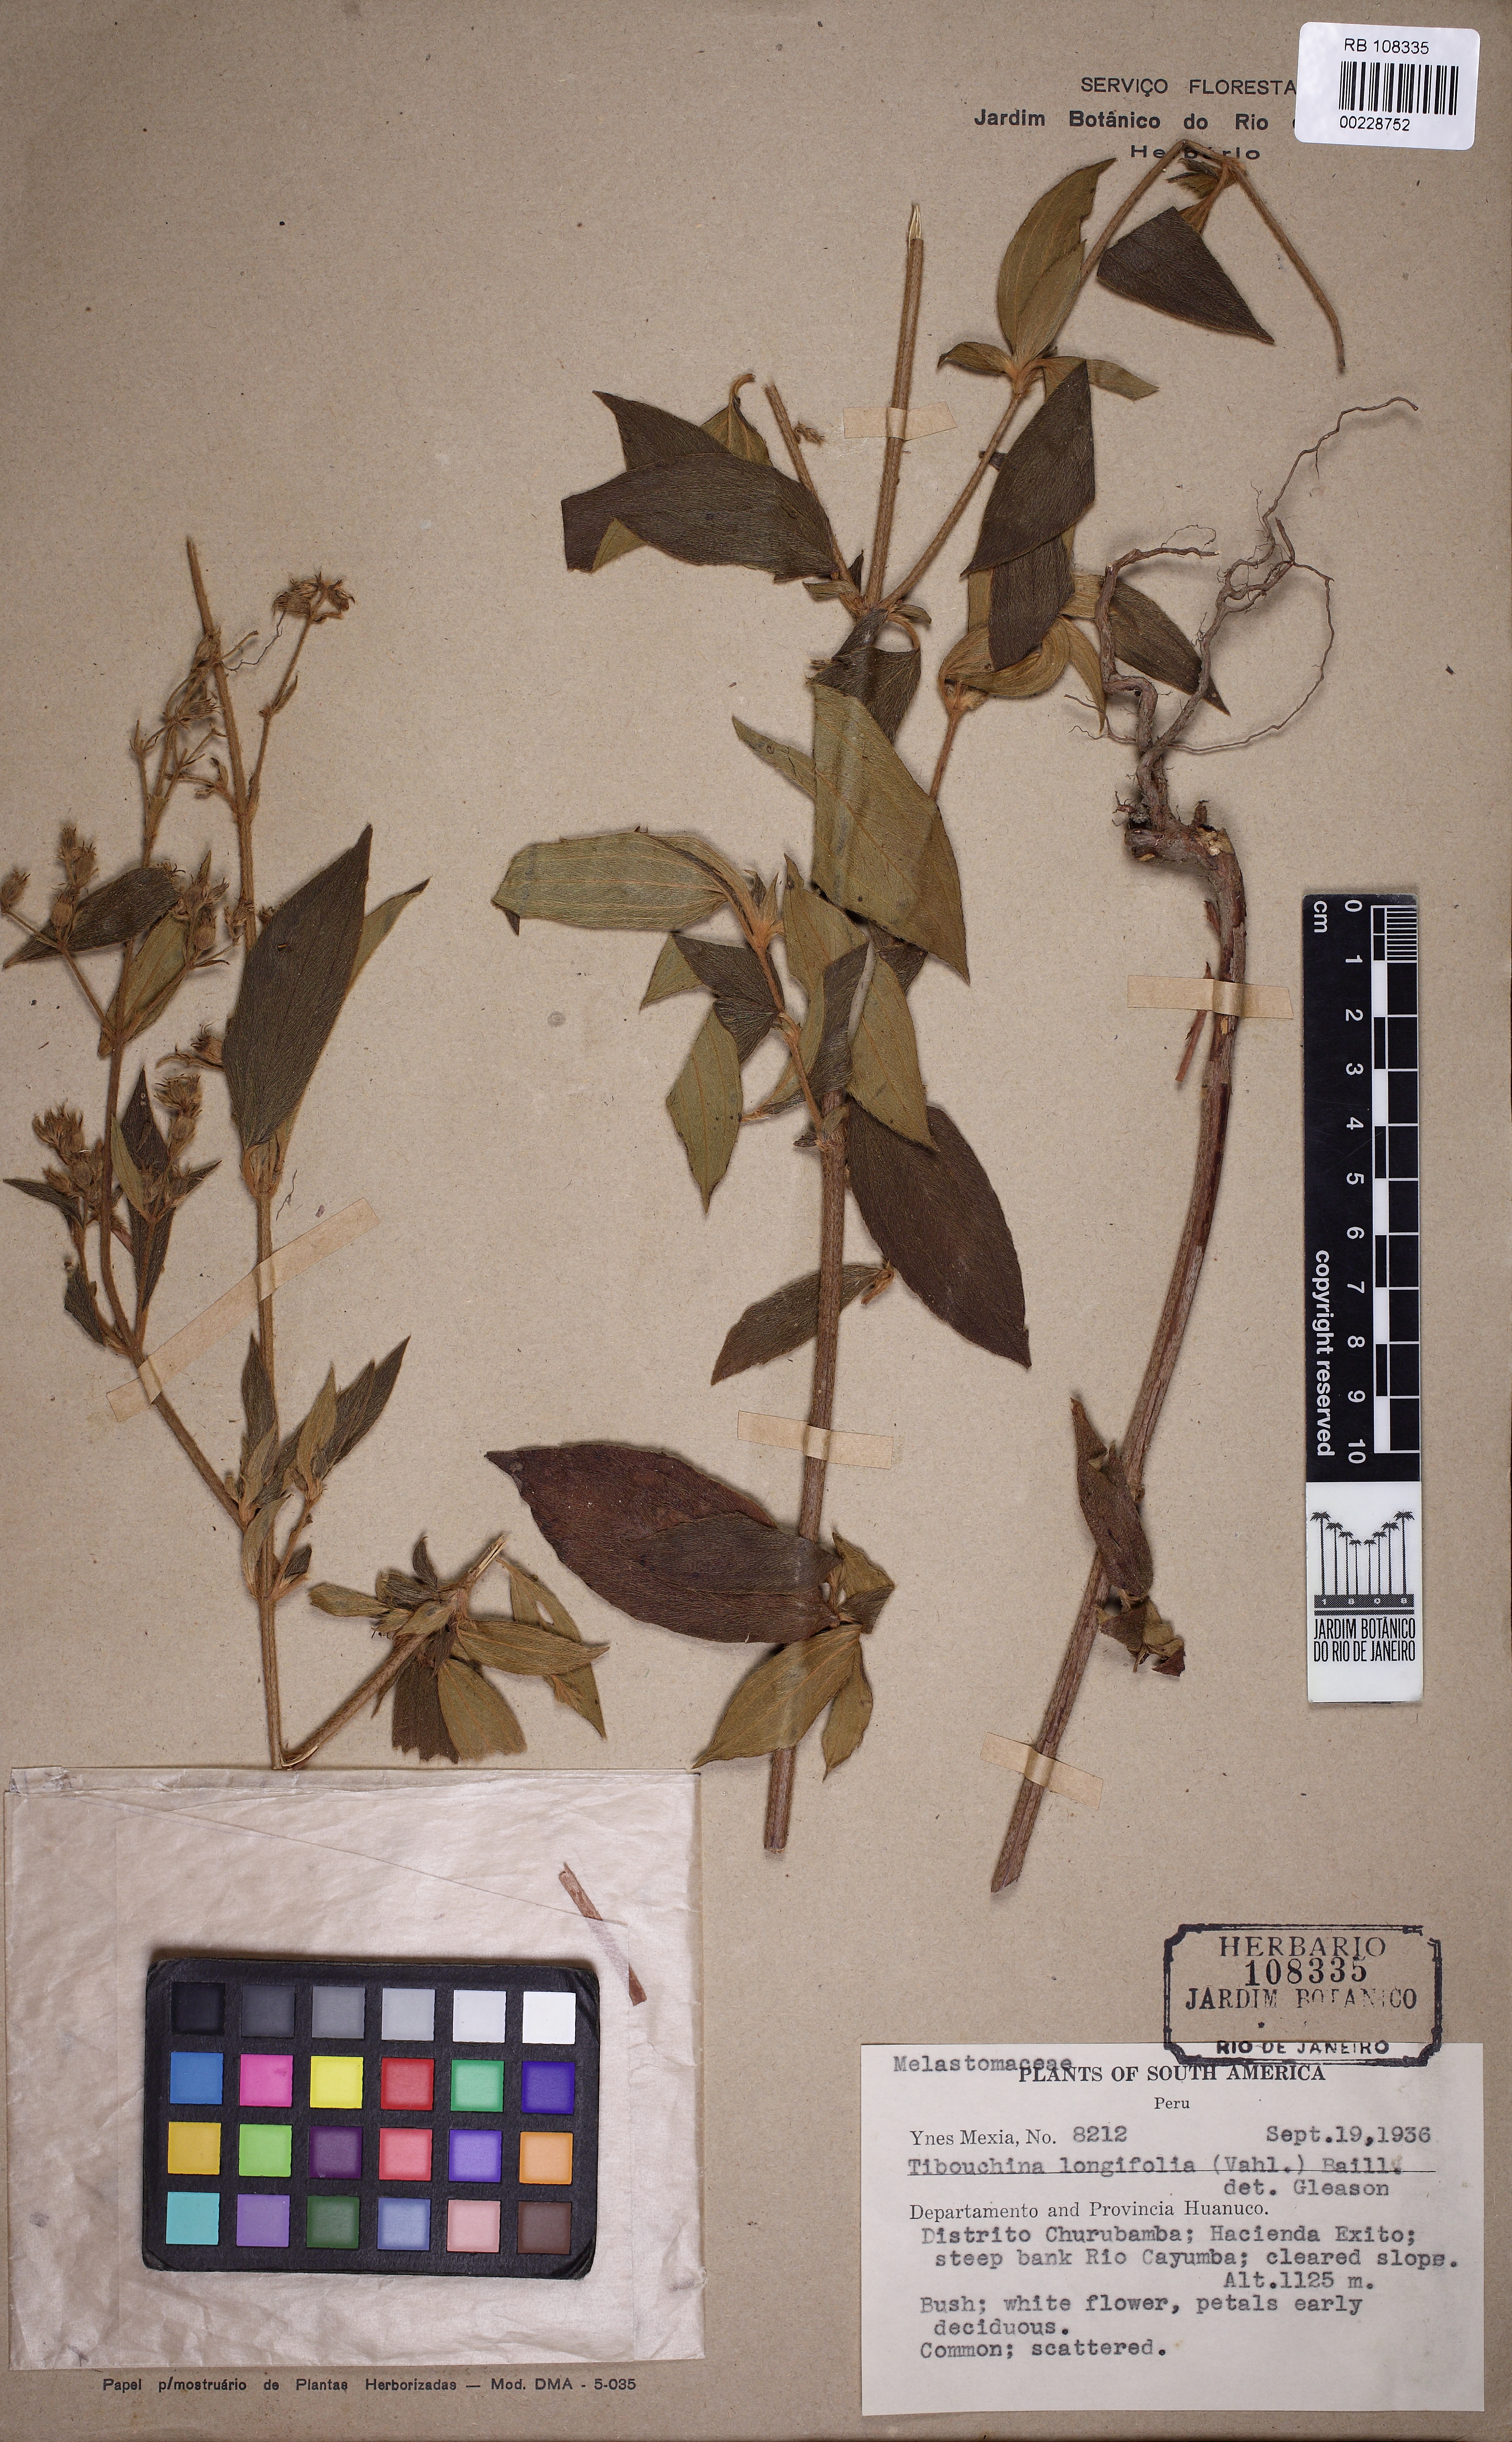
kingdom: Plantae
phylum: Tracheophyta
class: Magnoliopsida
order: Myrtales
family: Melastomataceae
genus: Pleroma
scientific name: Pleroma aegopogon
